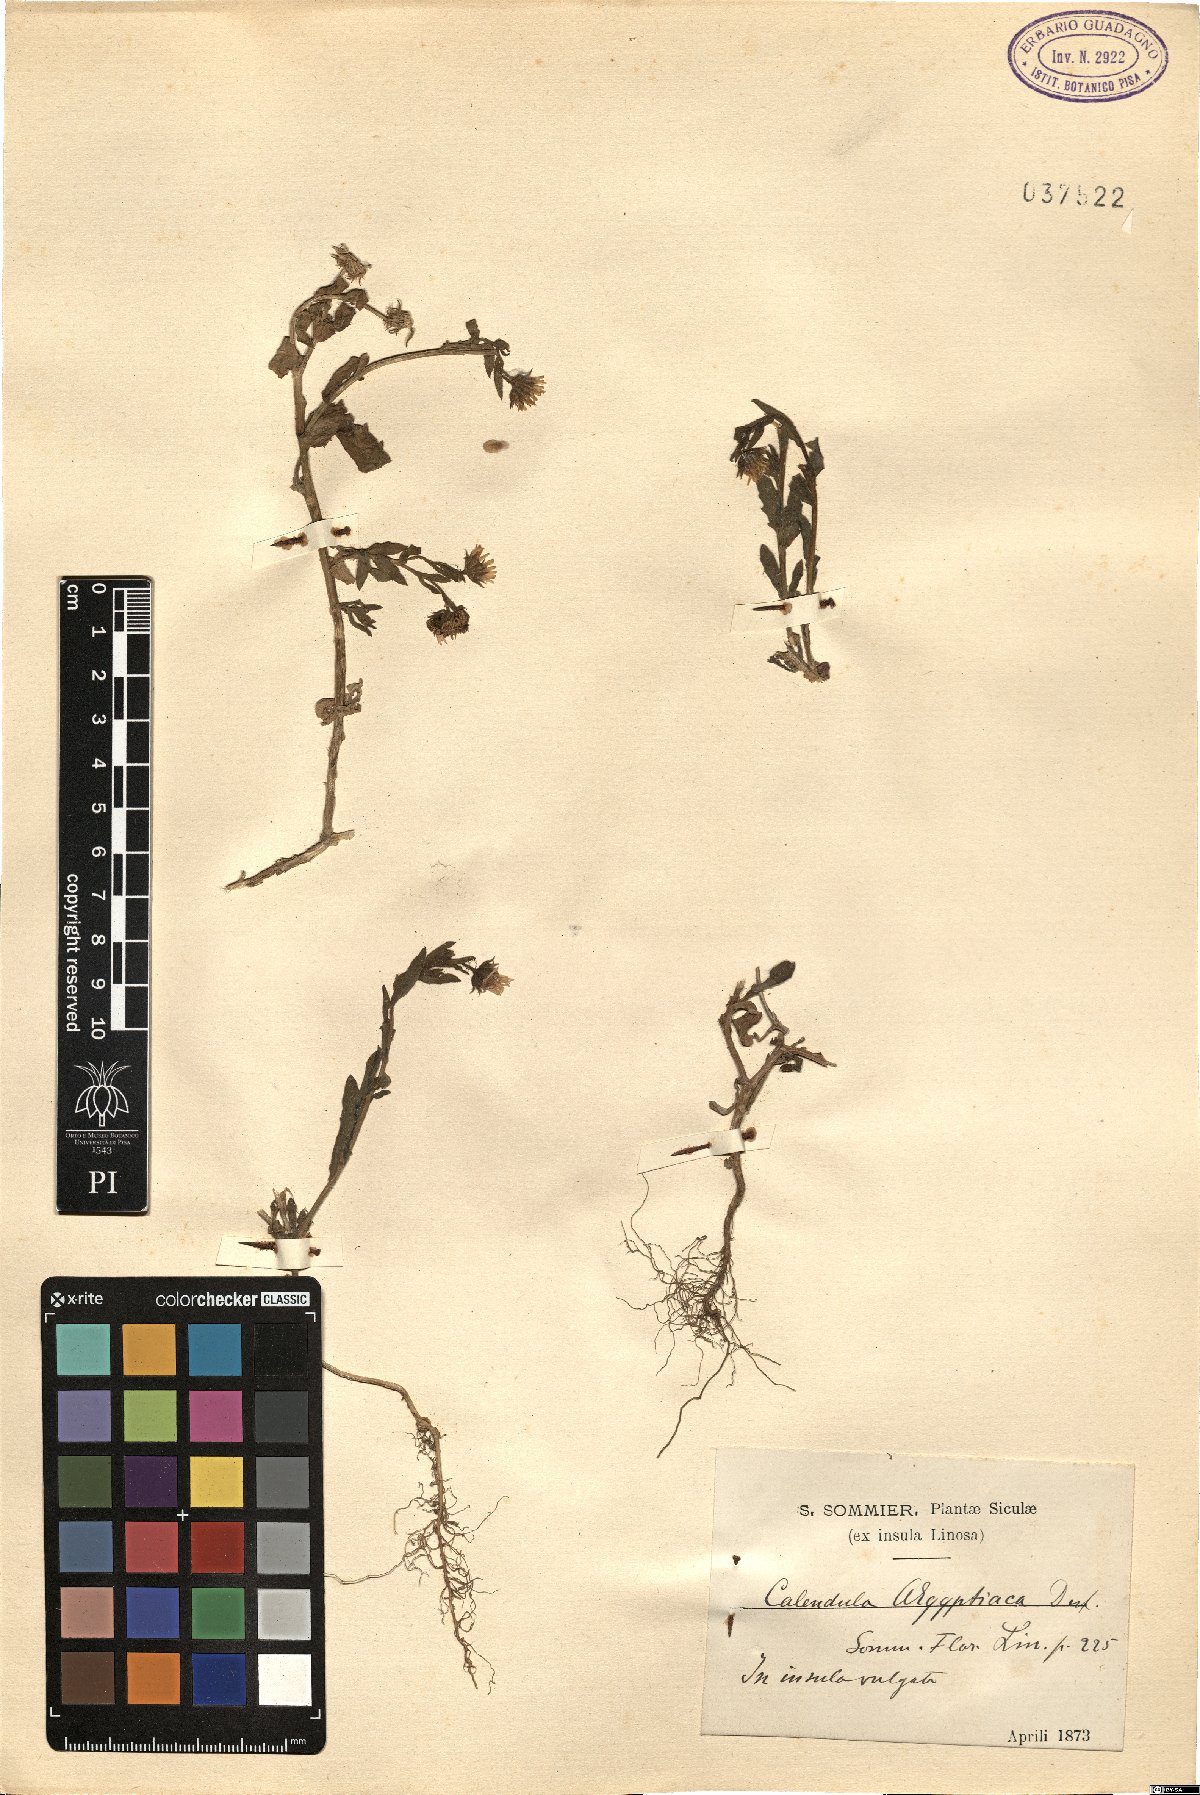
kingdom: Plantae
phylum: Tracheophyta
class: Magnoliopsida
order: Asterales
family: Asteraceae
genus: Calendula
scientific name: Calendula arvensis
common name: Field marigold
